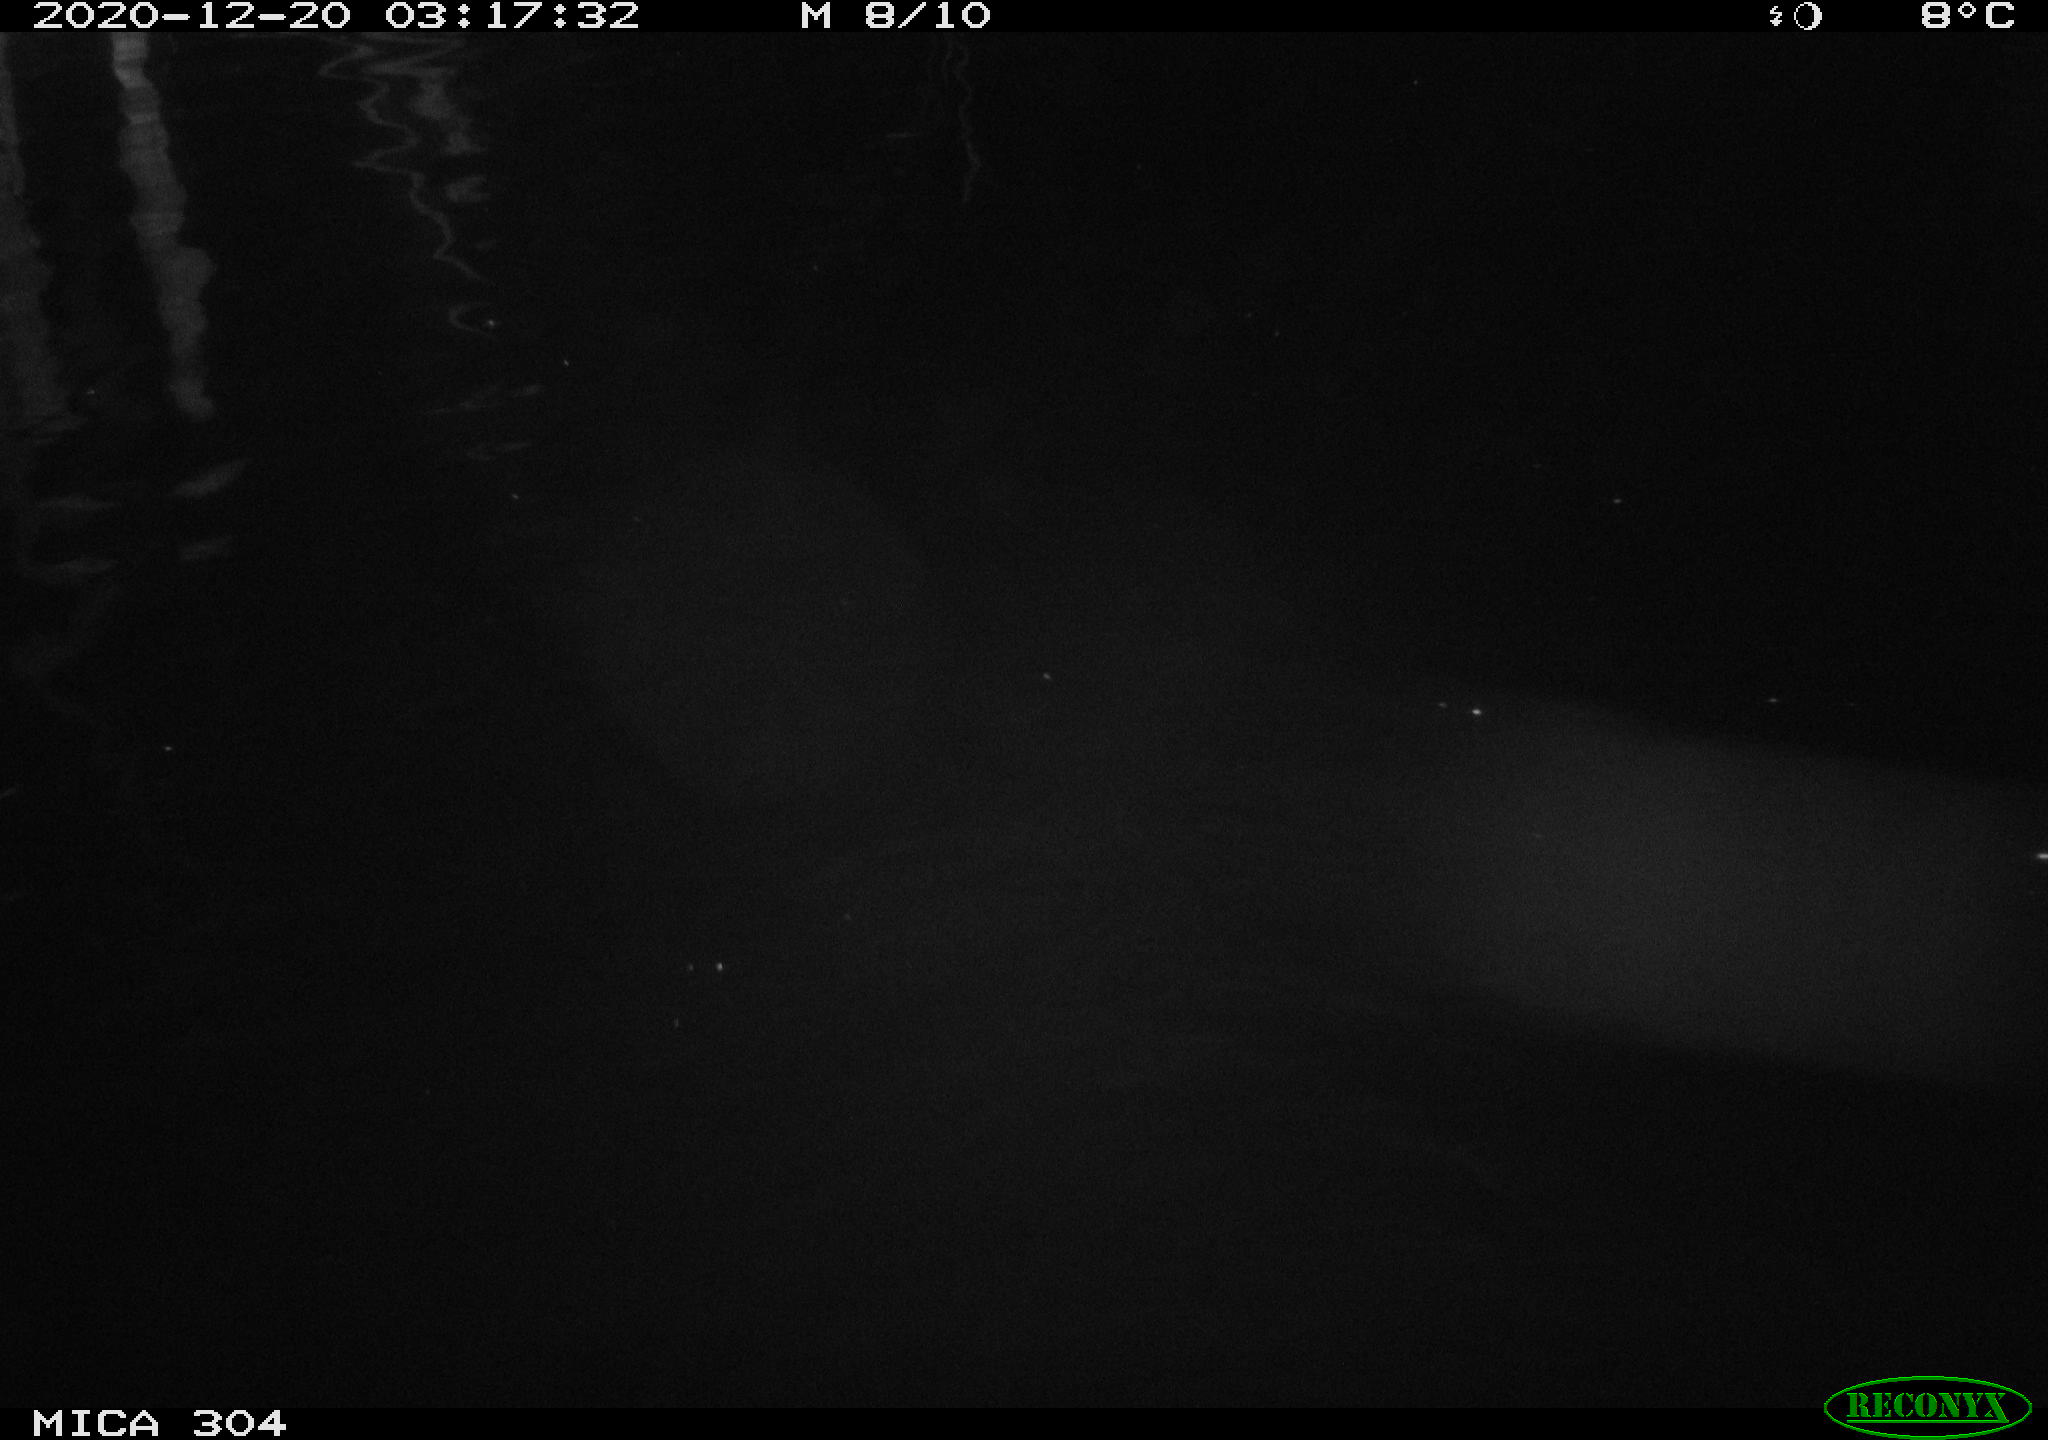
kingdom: Animalia
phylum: Chordata
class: Aves
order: Anseriformes
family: Anatidae
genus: Anas
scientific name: Anas platyrhynchos
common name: Mallard
